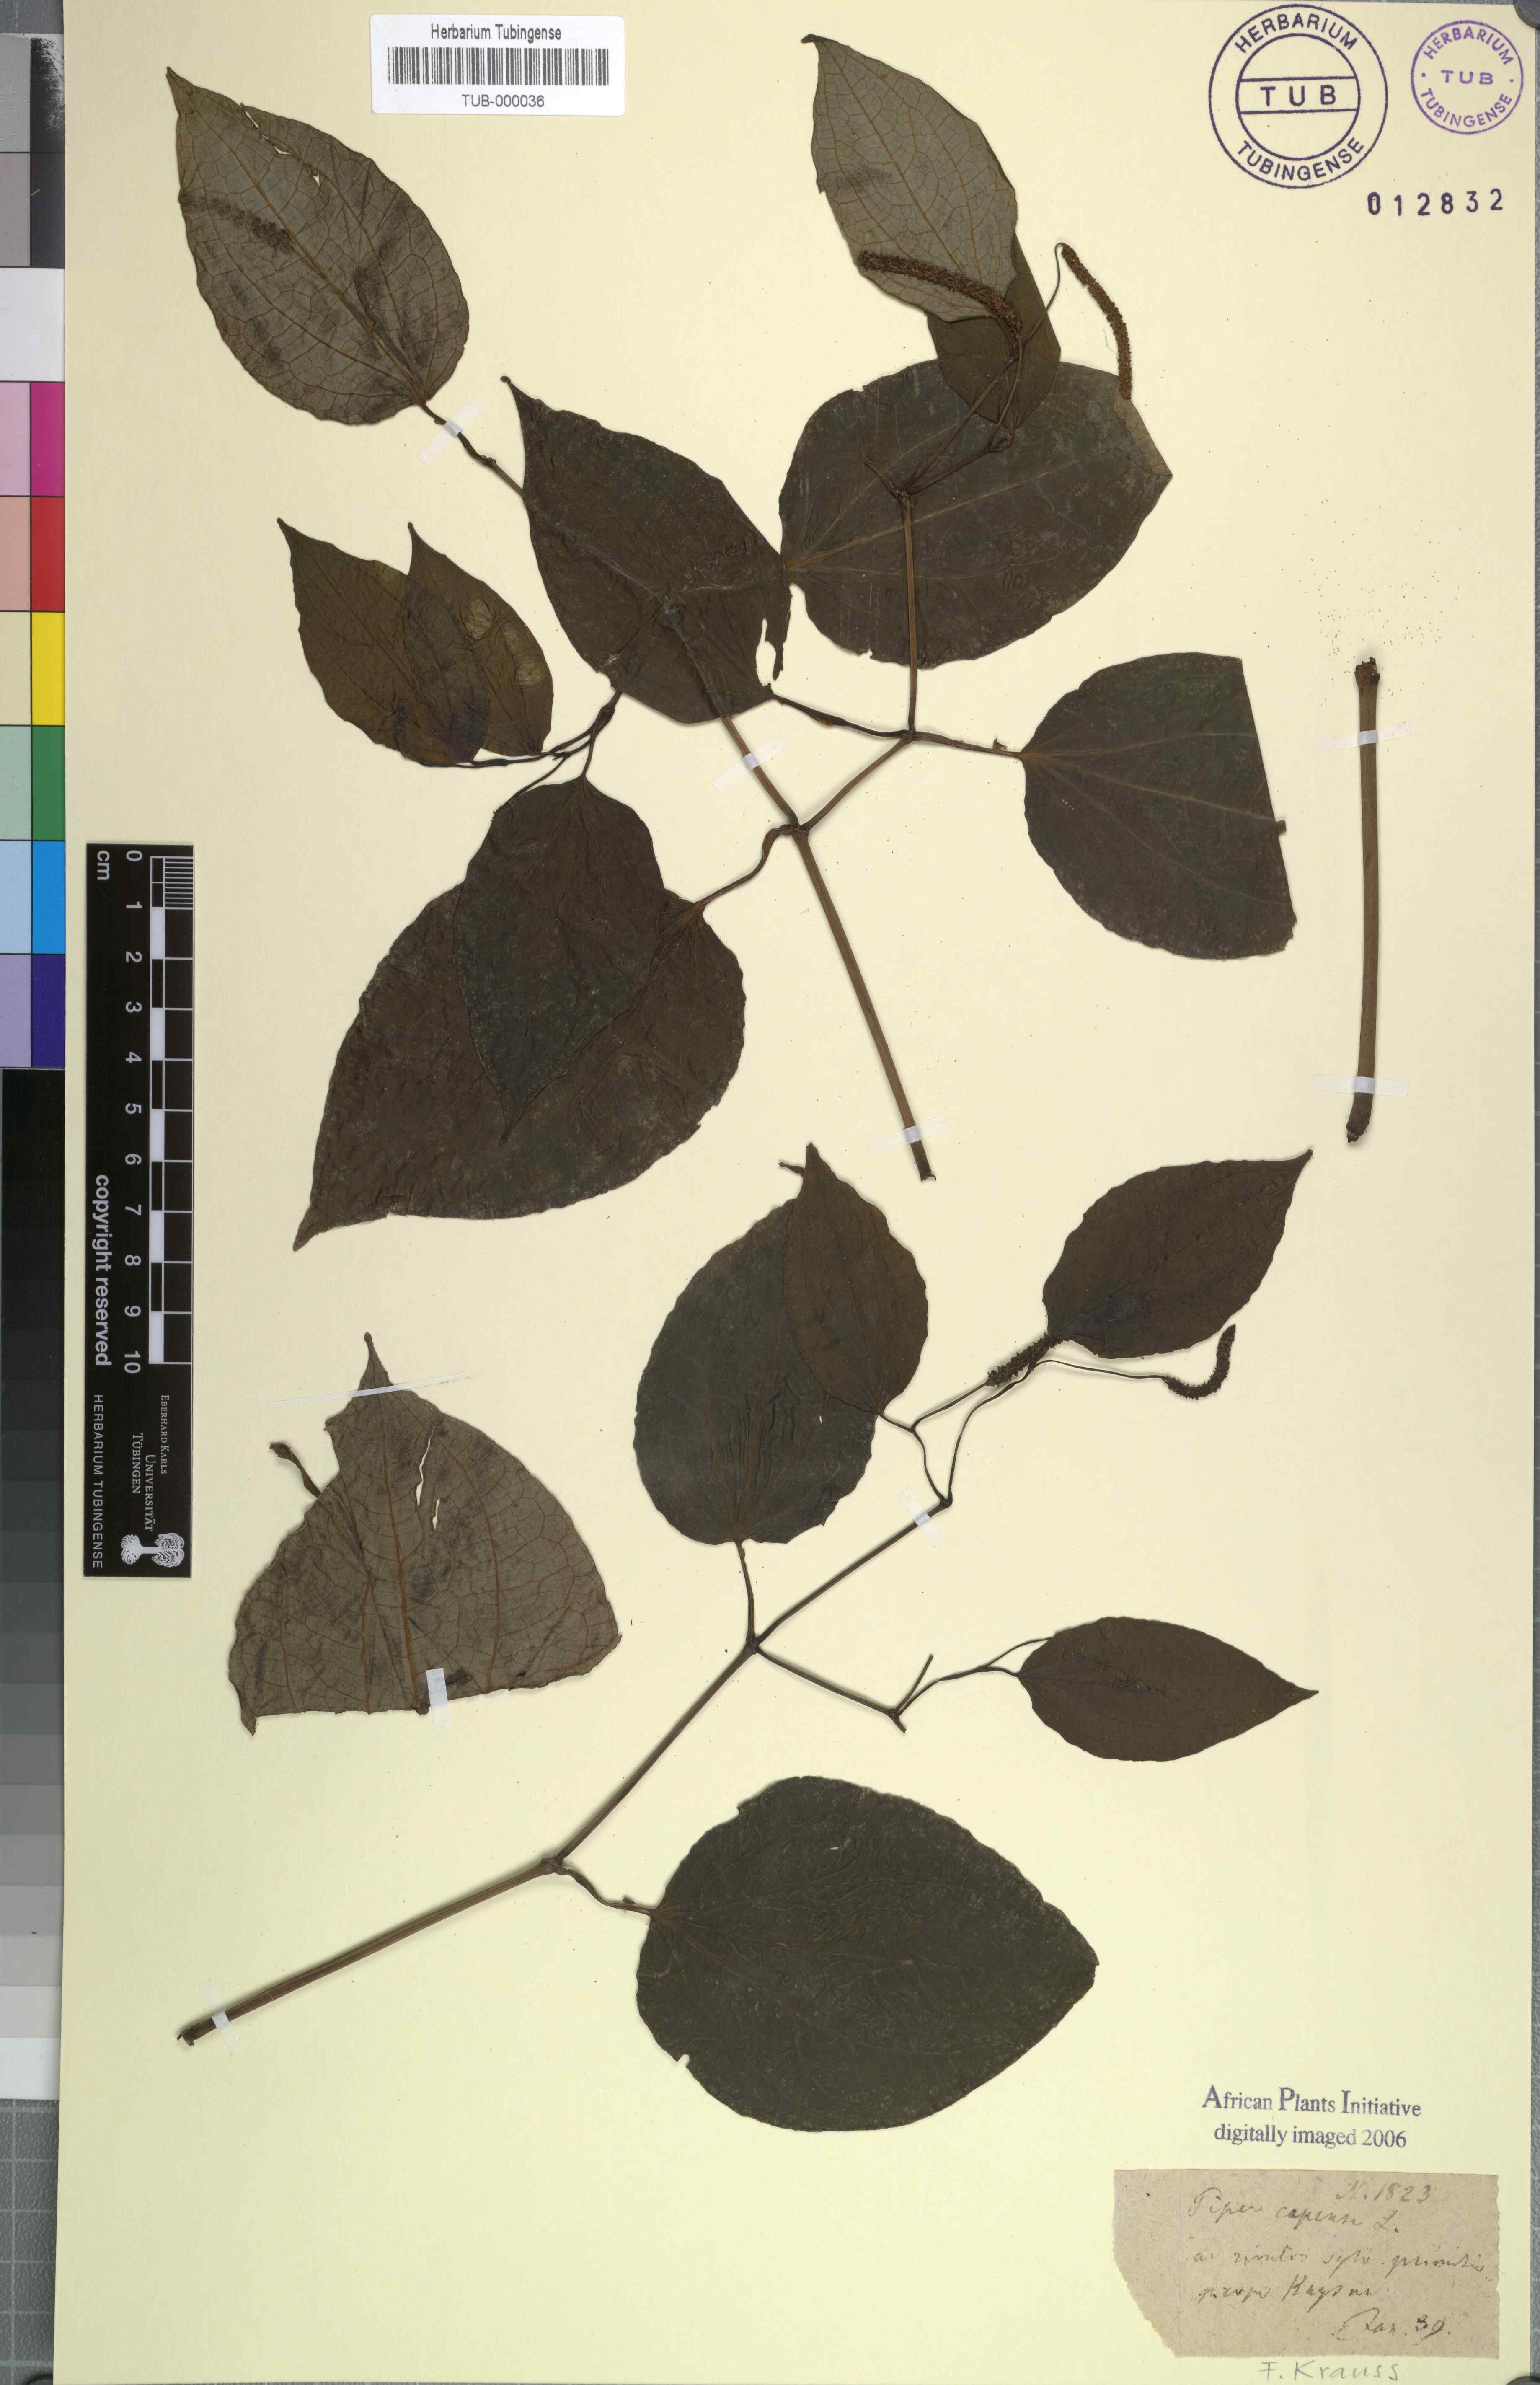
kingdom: Plantae
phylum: Tracheophyta
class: Magnoliopsida
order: Piperales
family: Piperaceae
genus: Piper
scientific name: Piper capense
